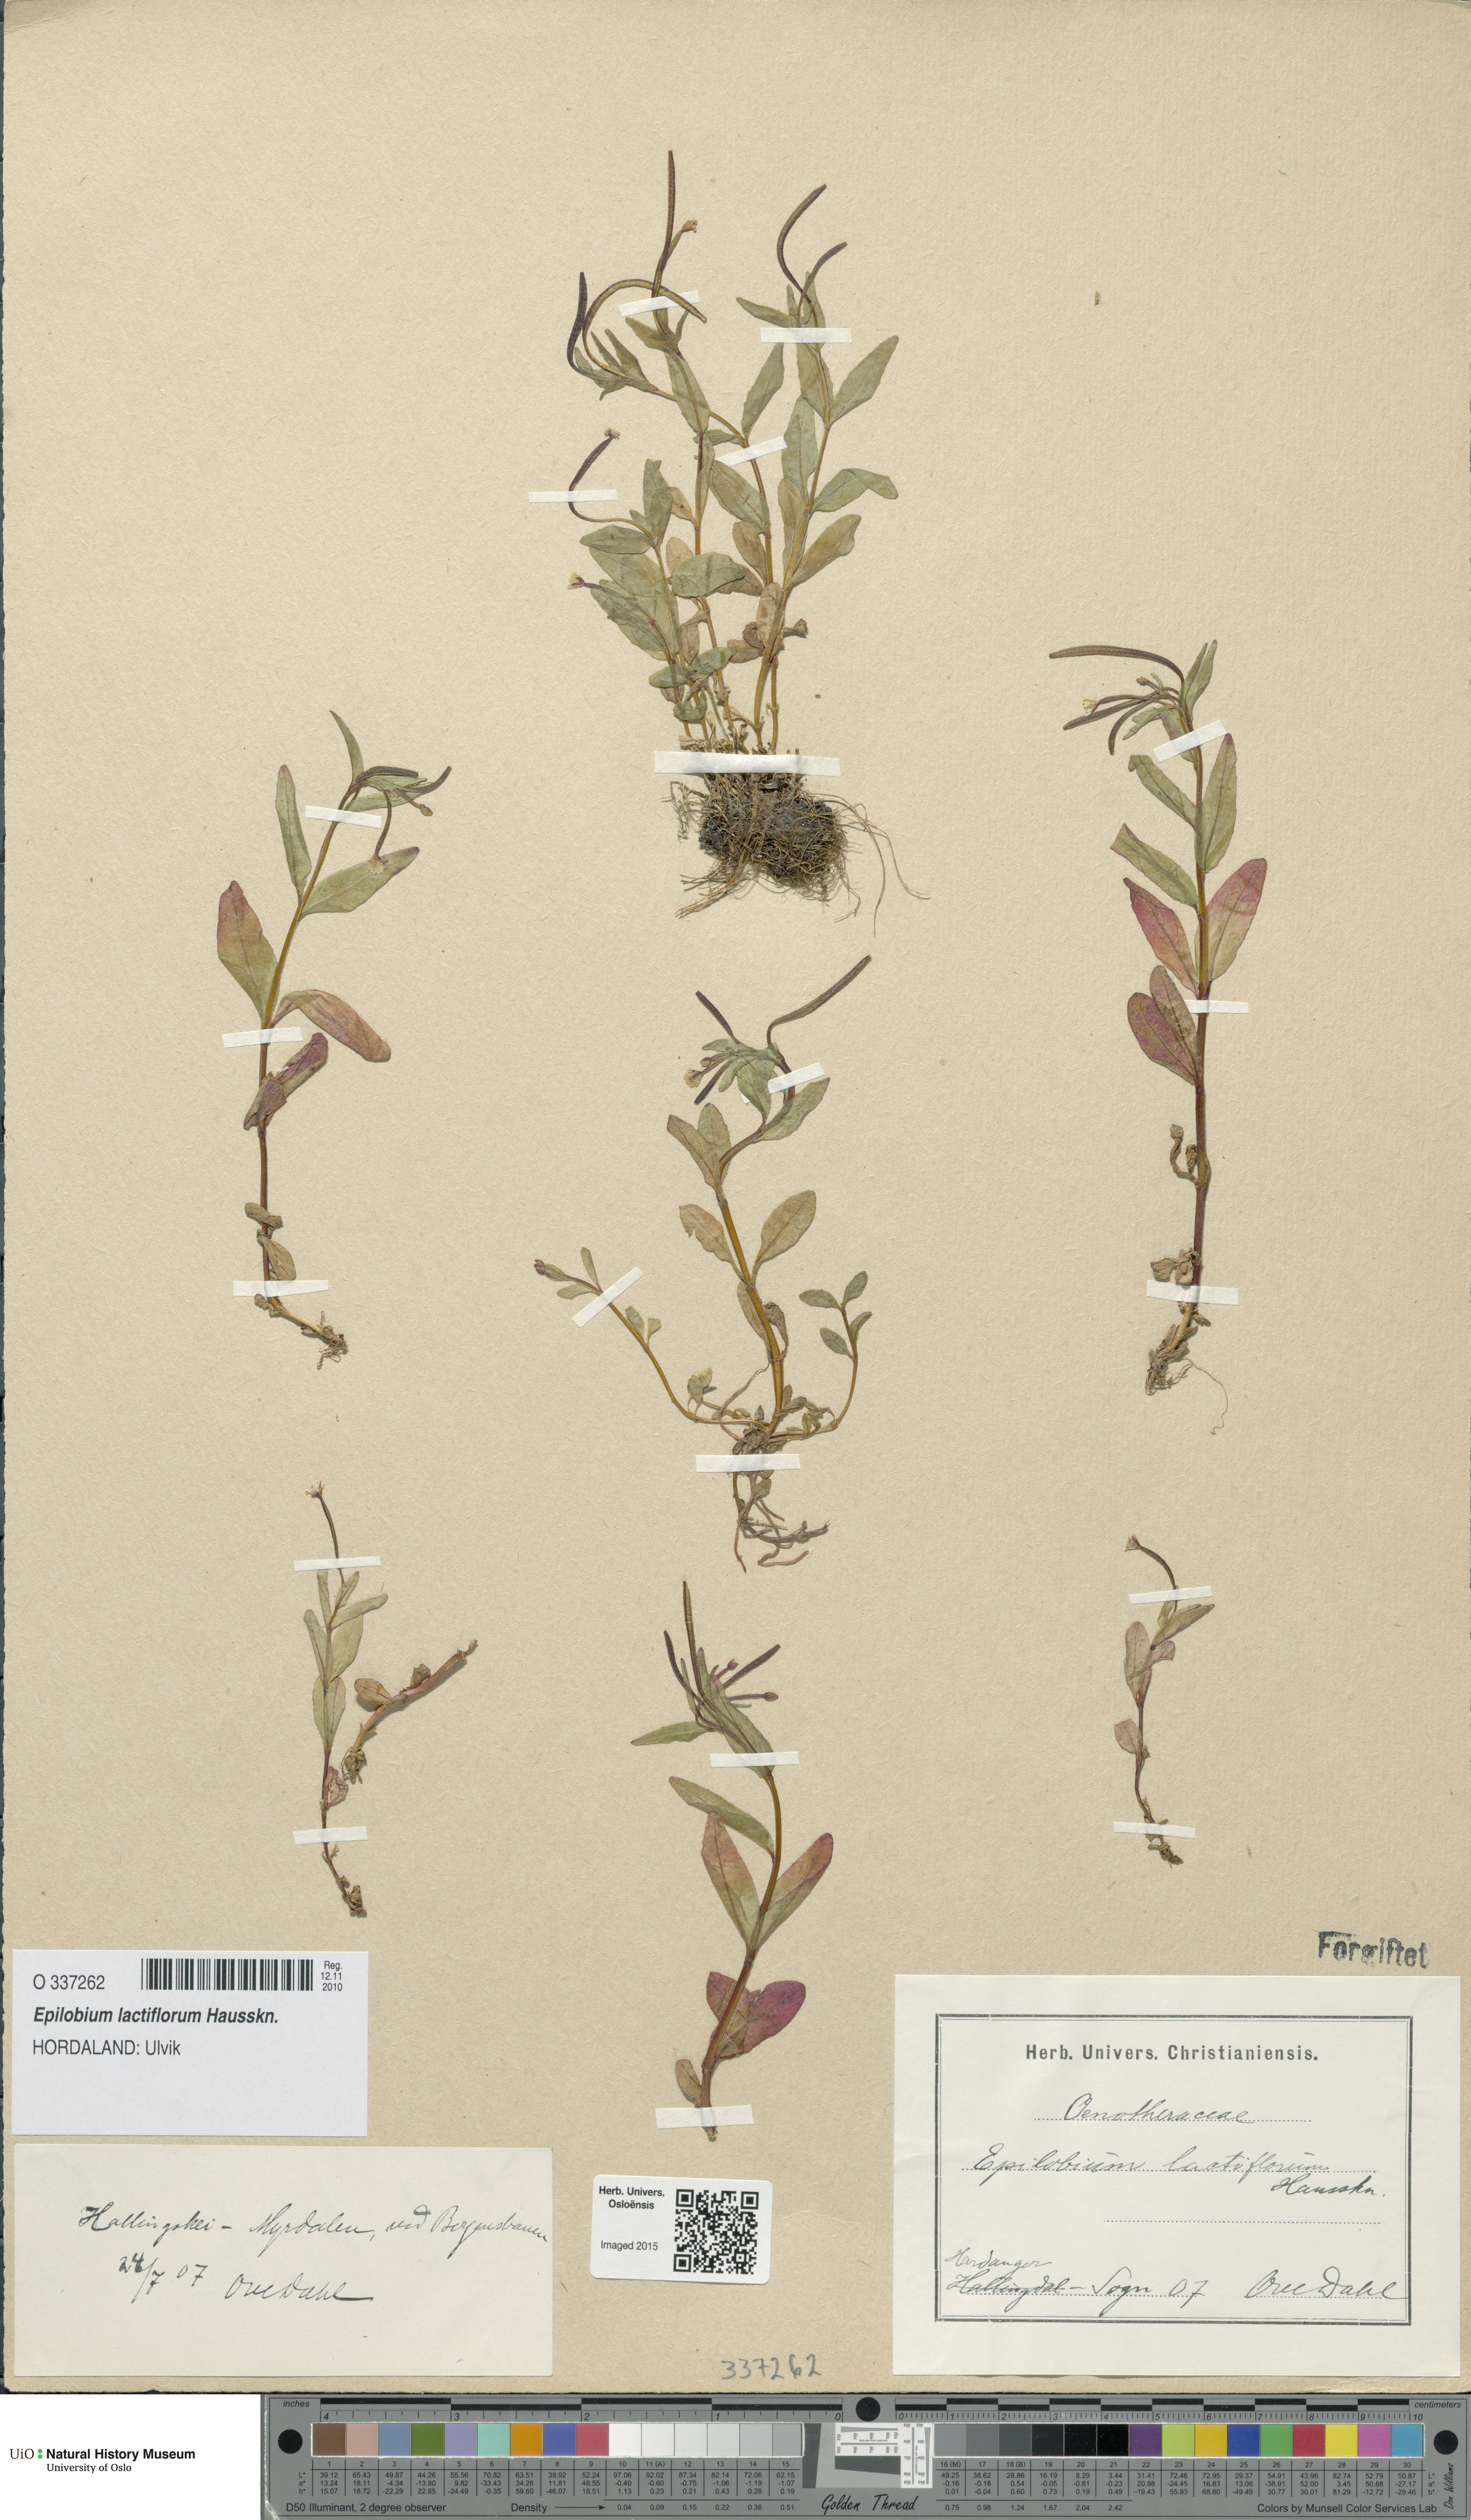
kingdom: Plantae
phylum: Tracheophyta
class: Magnoliopsida
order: Myrtales
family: Onagraceae
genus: Epilobium
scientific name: Epilobium lactiflorum
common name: Milkflower willowherb
